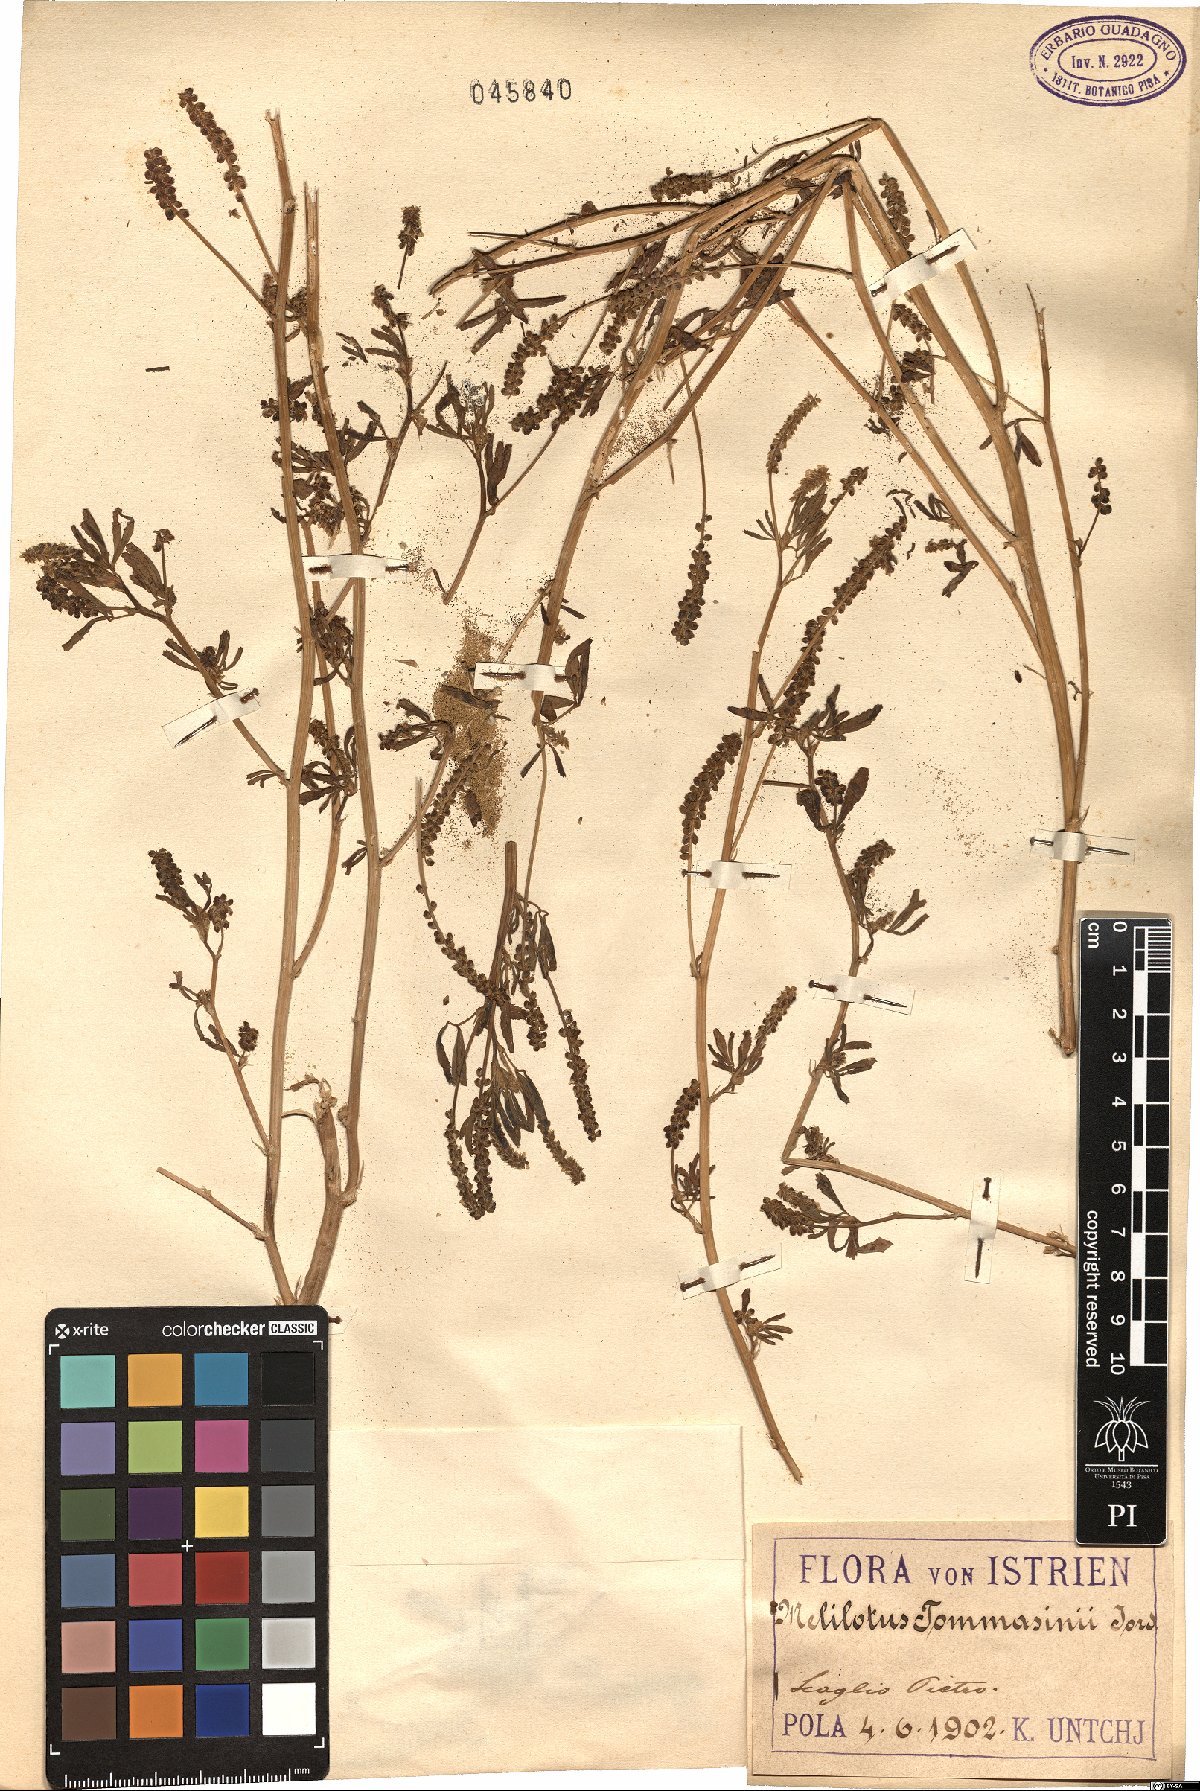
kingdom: Plantae
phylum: Tracheophyta
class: Magnoliopsida
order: Fabales
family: Fabaceae
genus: Melilotus
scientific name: Melilotus indicus
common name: Small melilot
